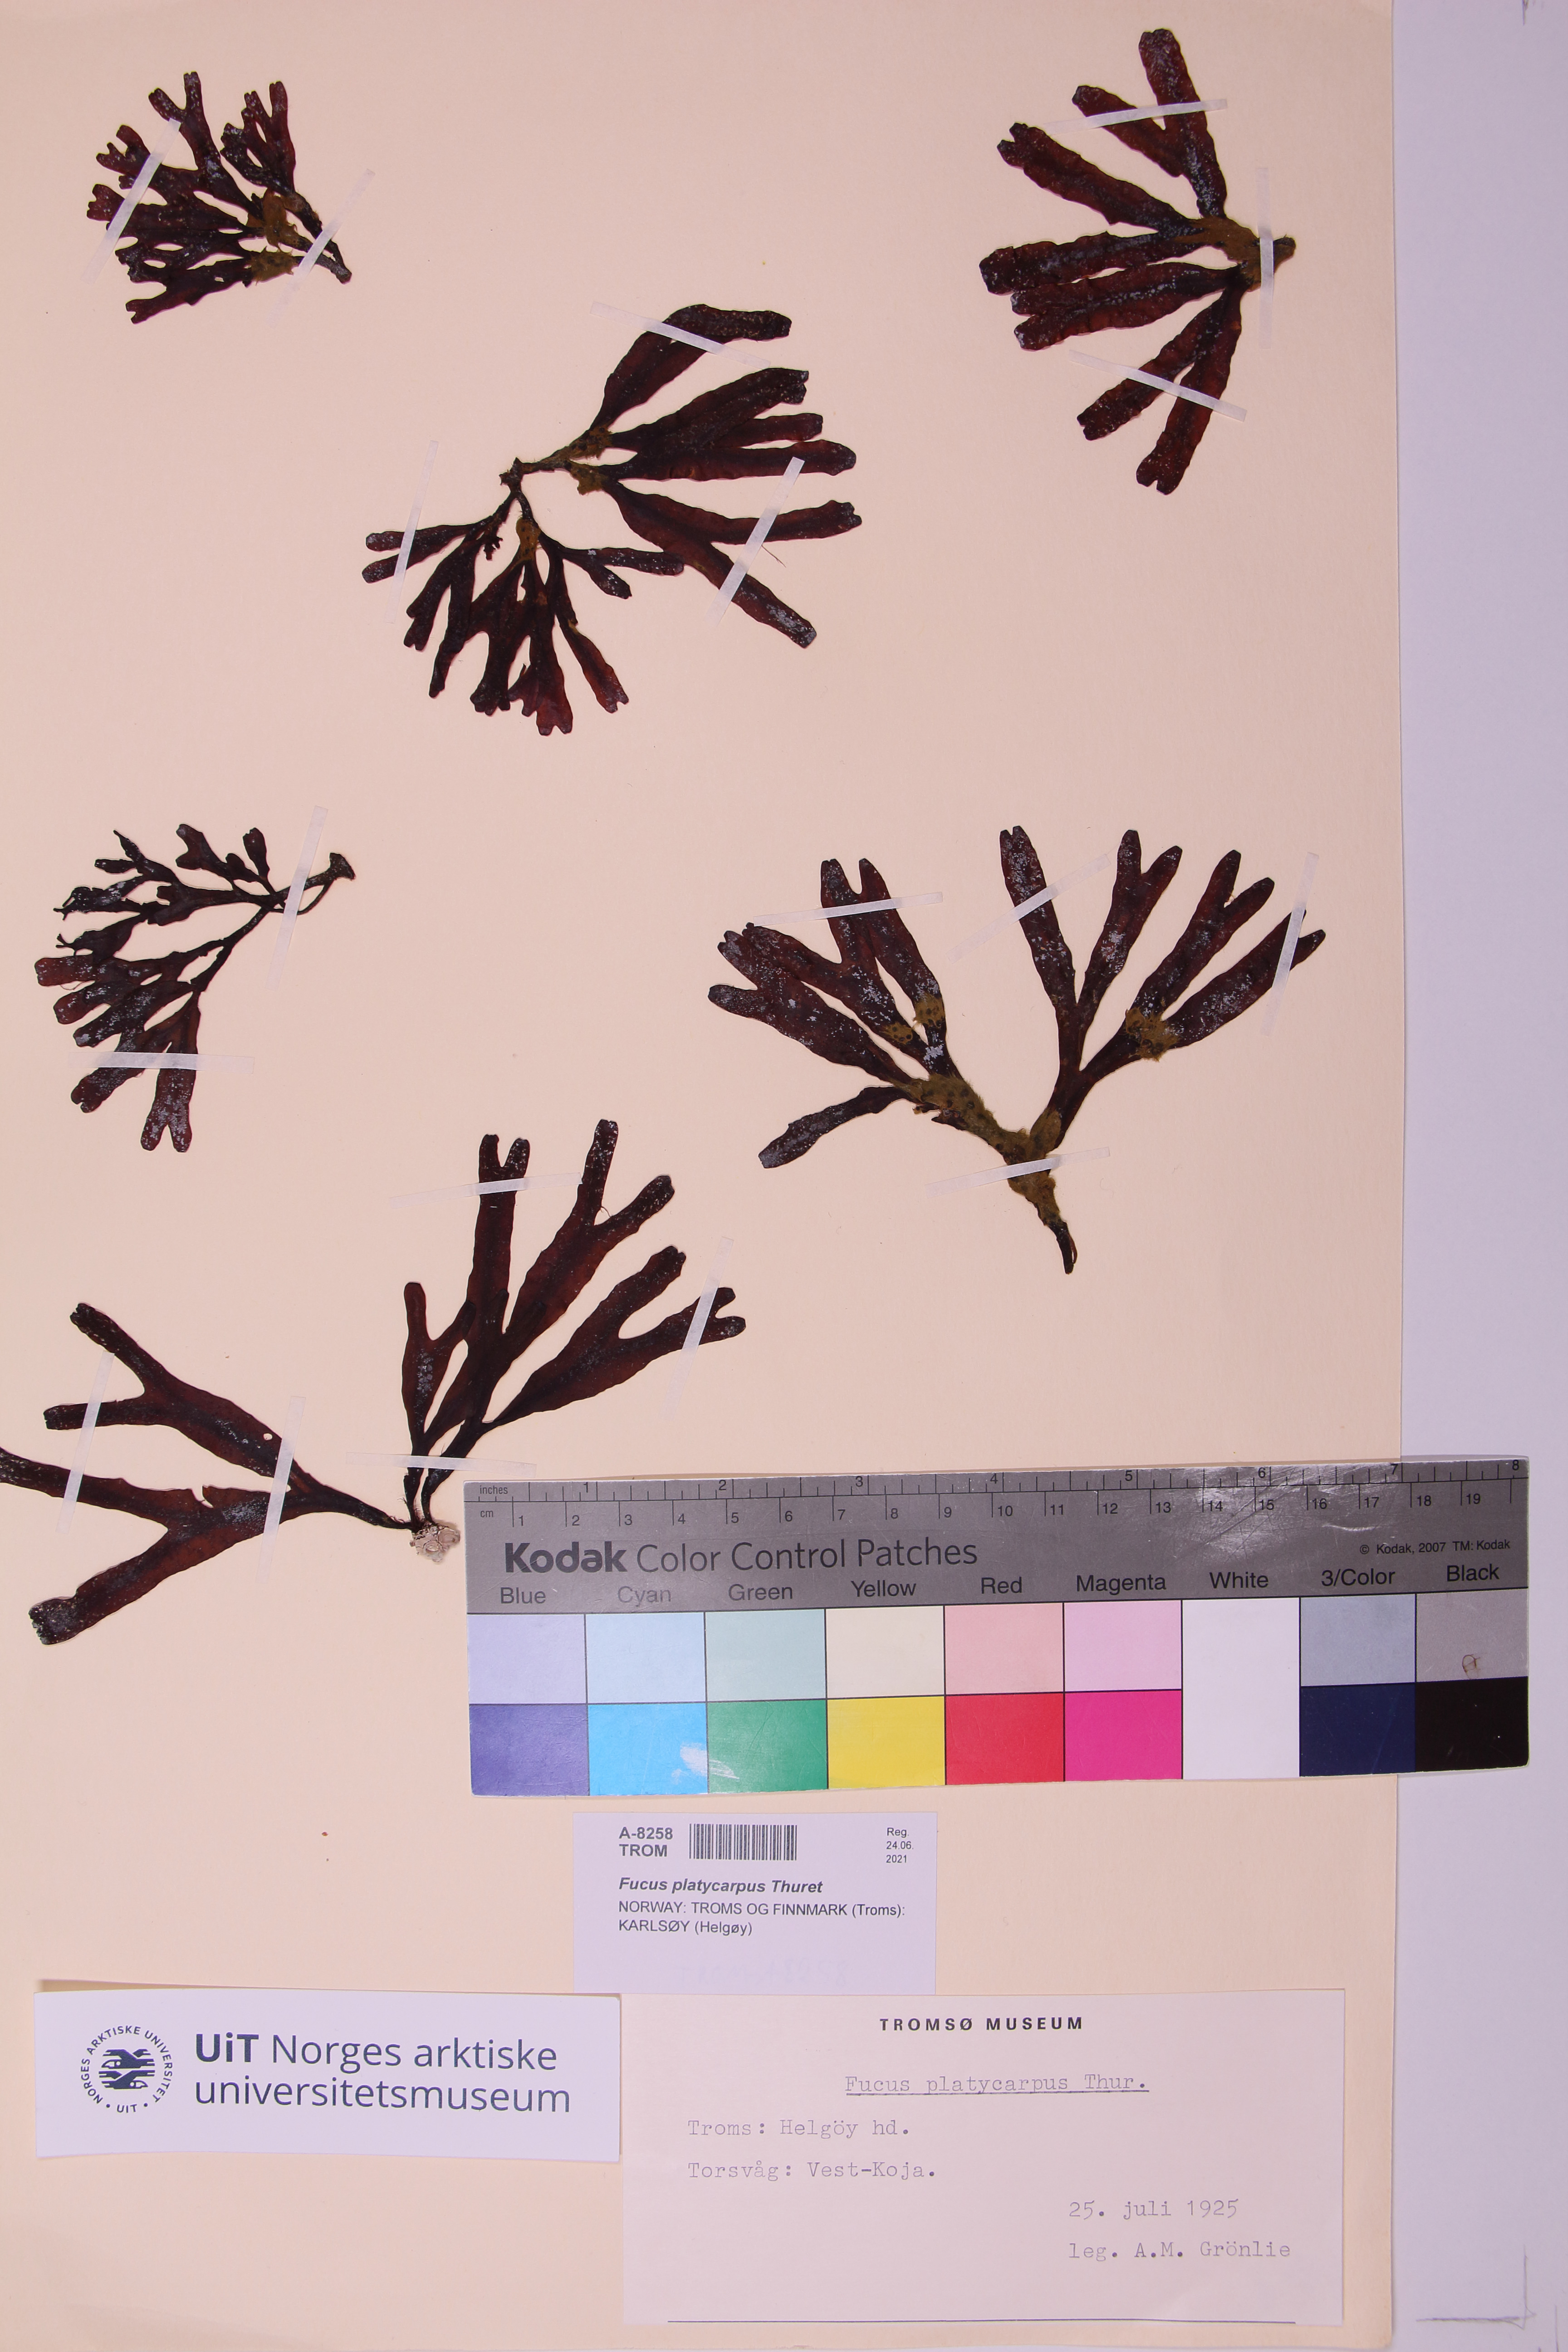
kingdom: Chromista
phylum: Ochrophyta
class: Phaeophyceae
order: Fucales
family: Fucaceae
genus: Fucus
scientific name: Fucus distichus
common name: Rockweed
